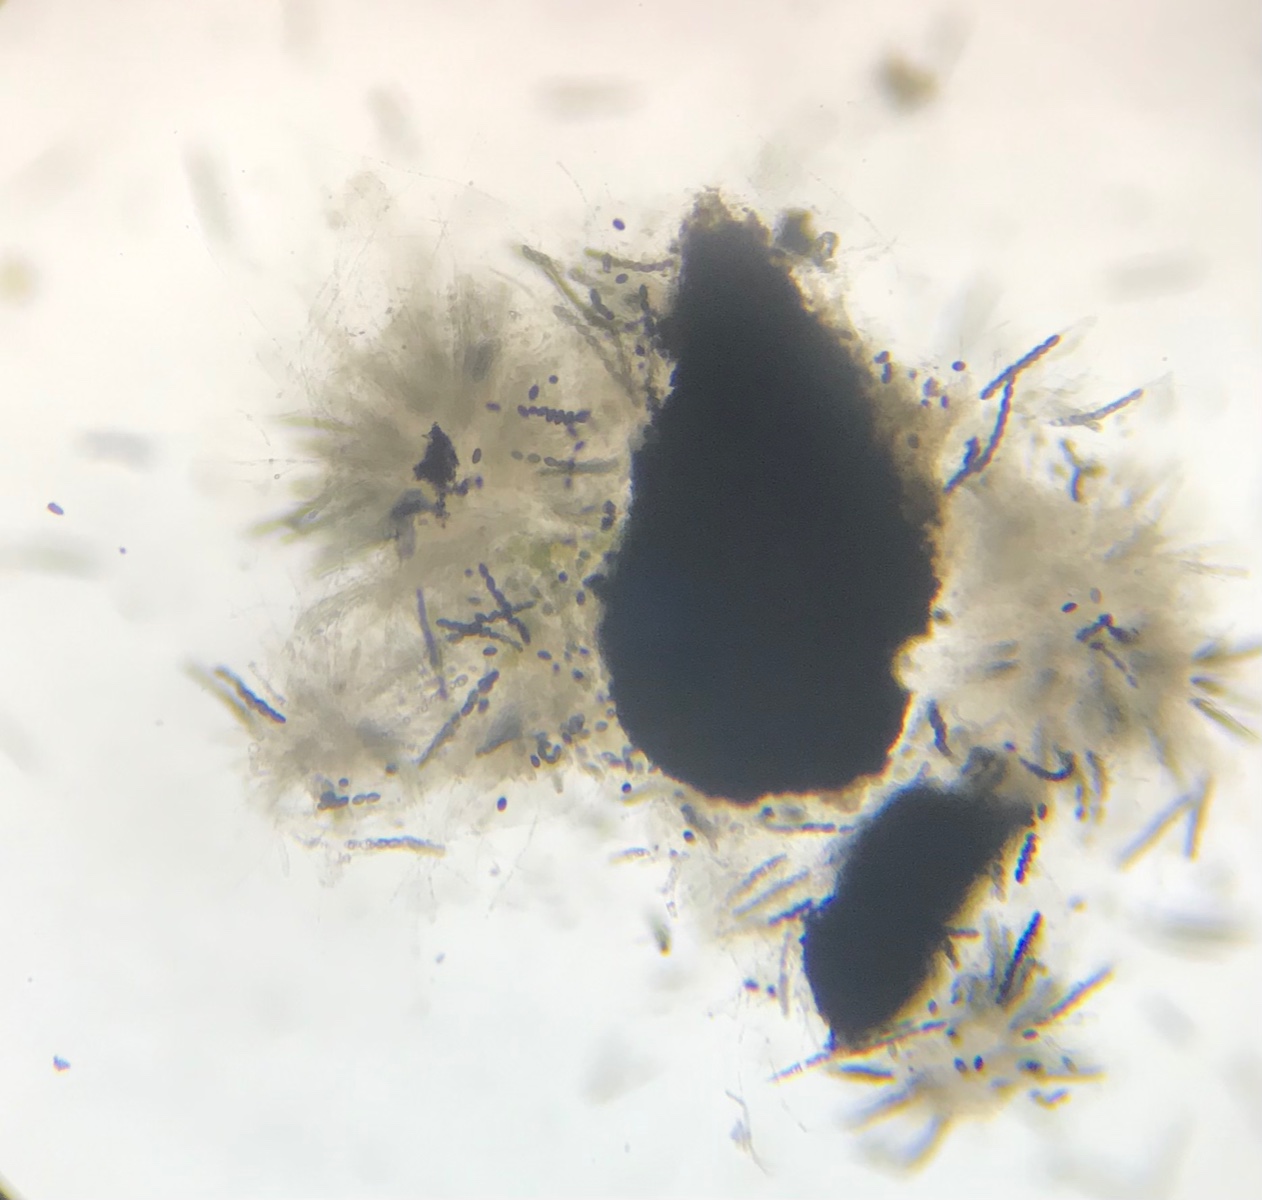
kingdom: Fungi
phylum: Ascomycota
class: Sordariomycetes
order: Xylariales
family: Xylariaceae
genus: Nemania
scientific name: Nemania confluens
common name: indsænket kuldyne
